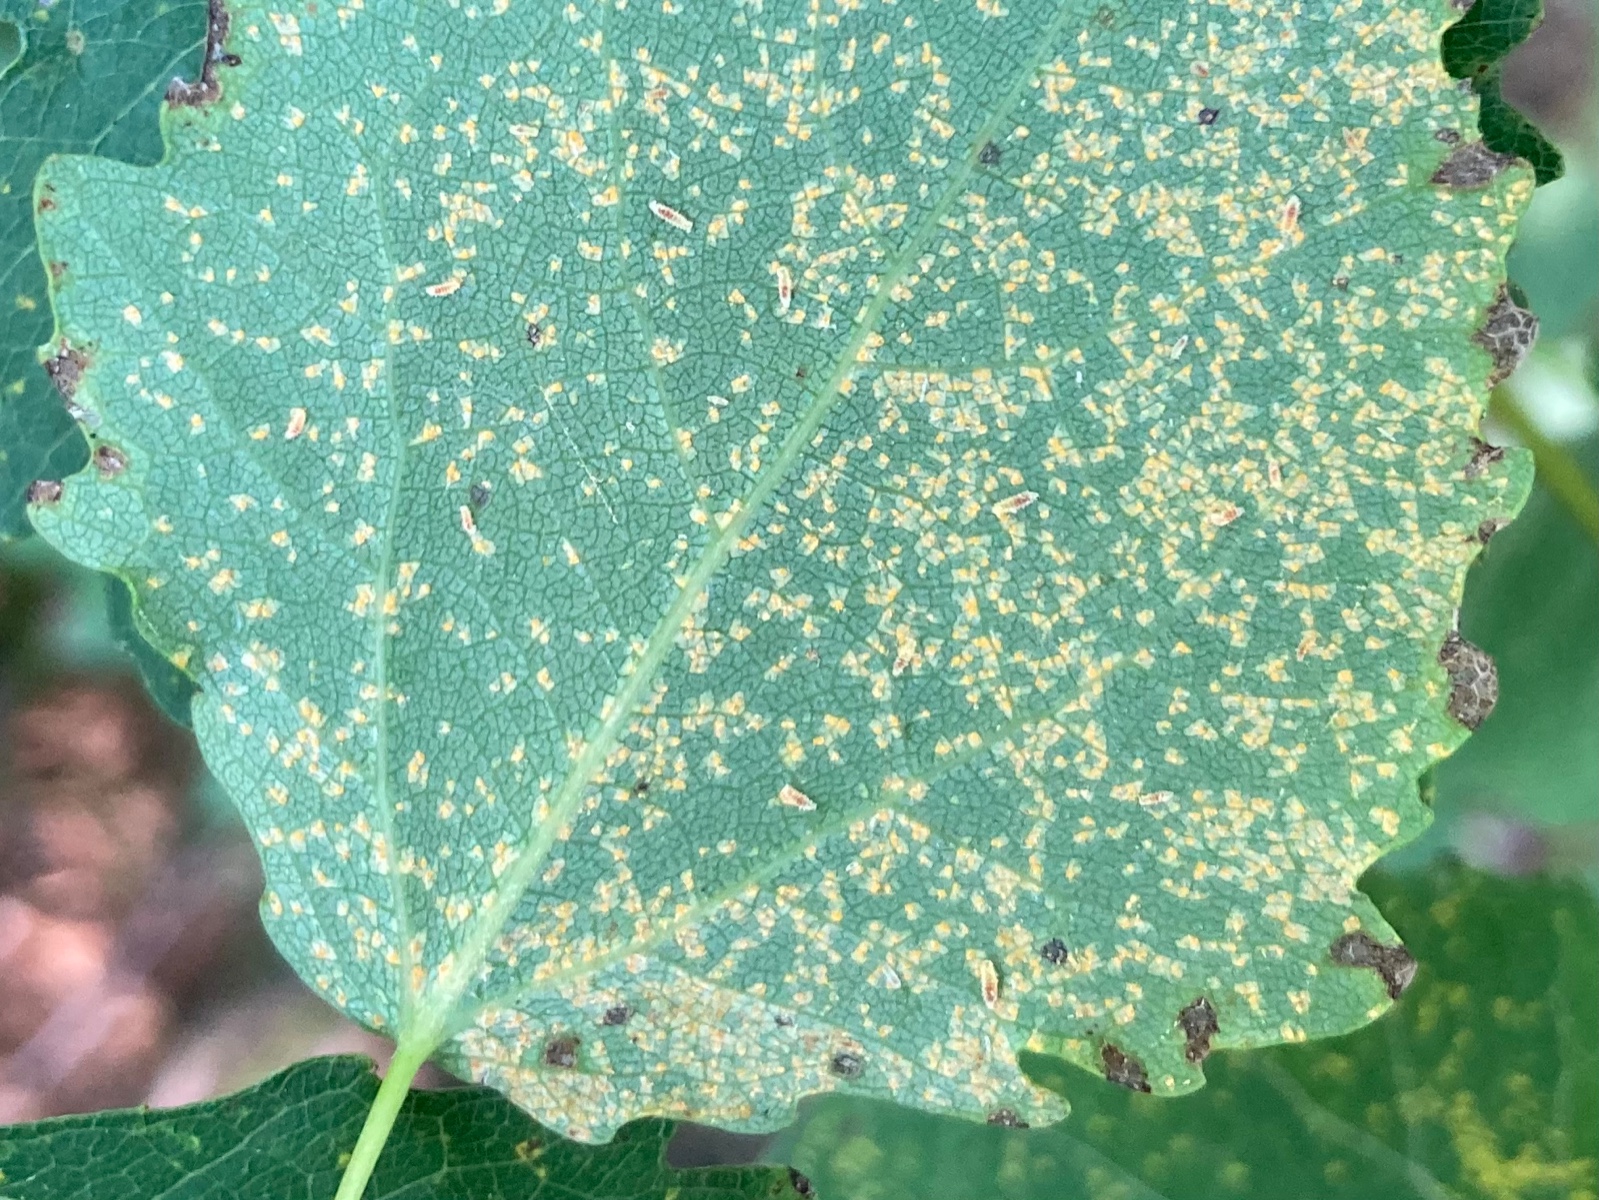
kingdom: Fungi
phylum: Basidiomycota
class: Pucciniomycetes
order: Pucciniales
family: Melampsoraceae
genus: Melampsora
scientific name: Melampsora populnea
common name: poppel-skorperust
